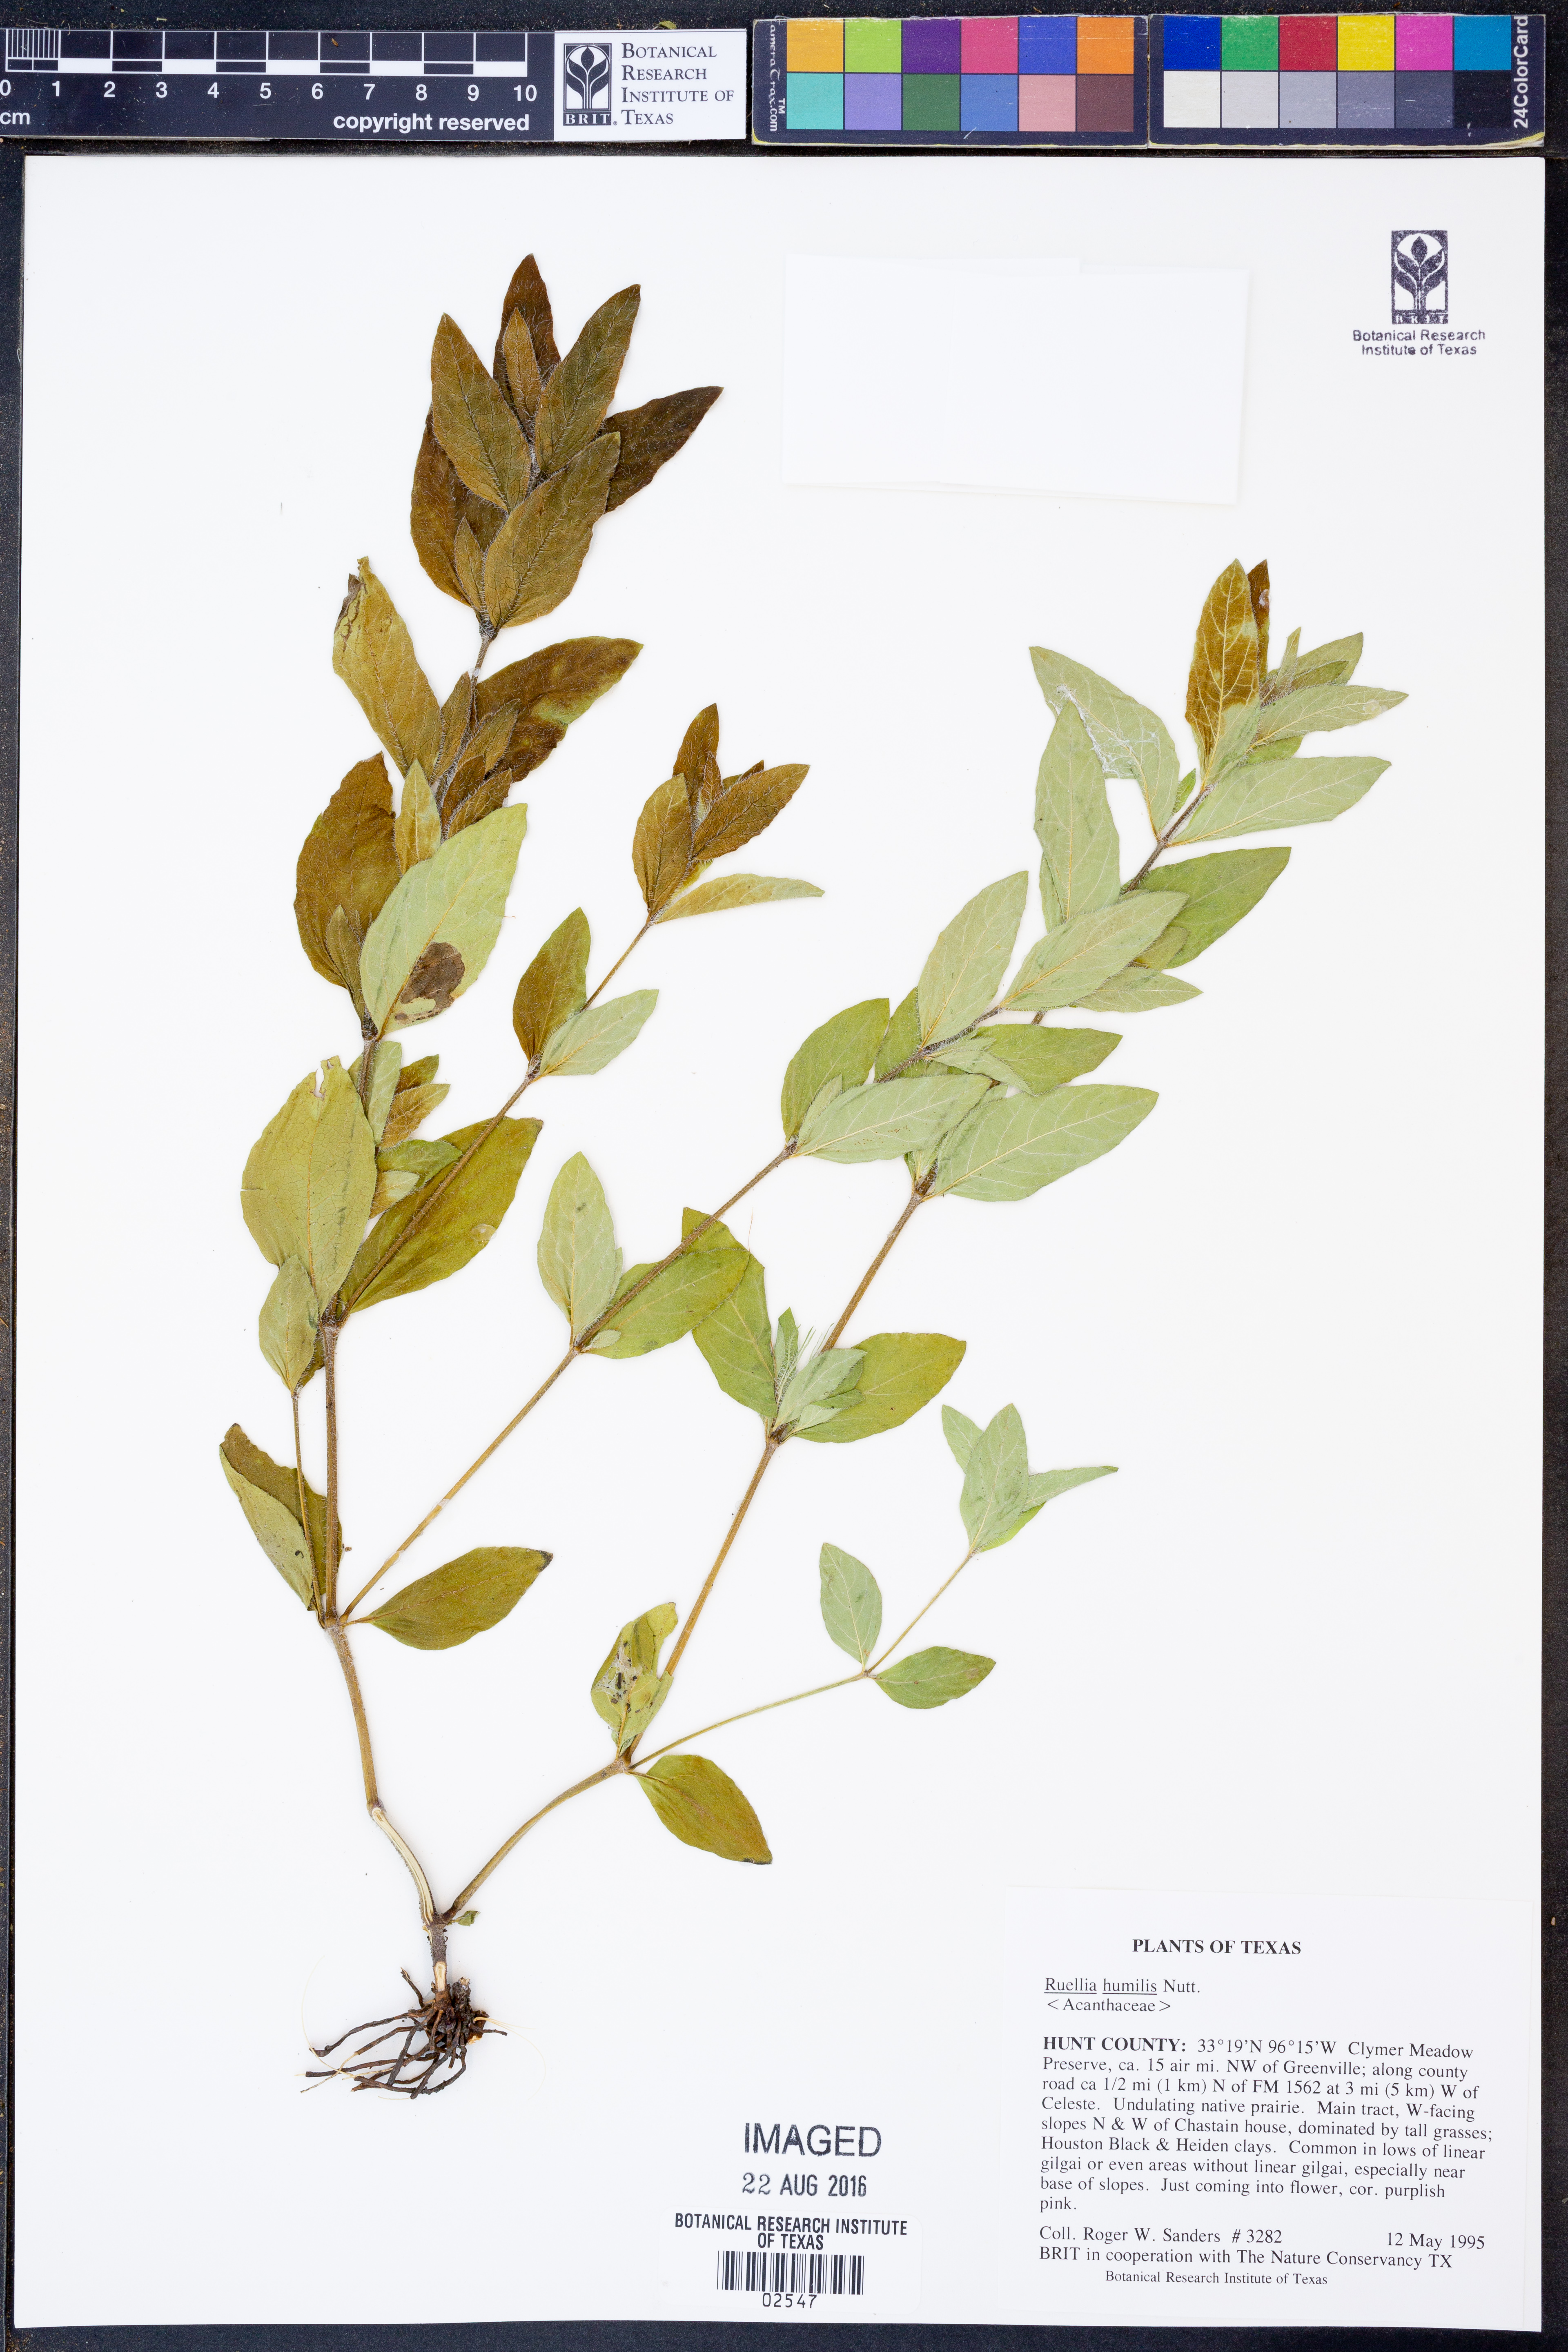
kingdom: Plantae
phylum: Tracheophyta
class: Magnoliopsida
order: Lamiales
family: Acanthaceae
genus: Ruellia
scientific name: Ruellia humilis
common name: Fringe-leaf ruellia
